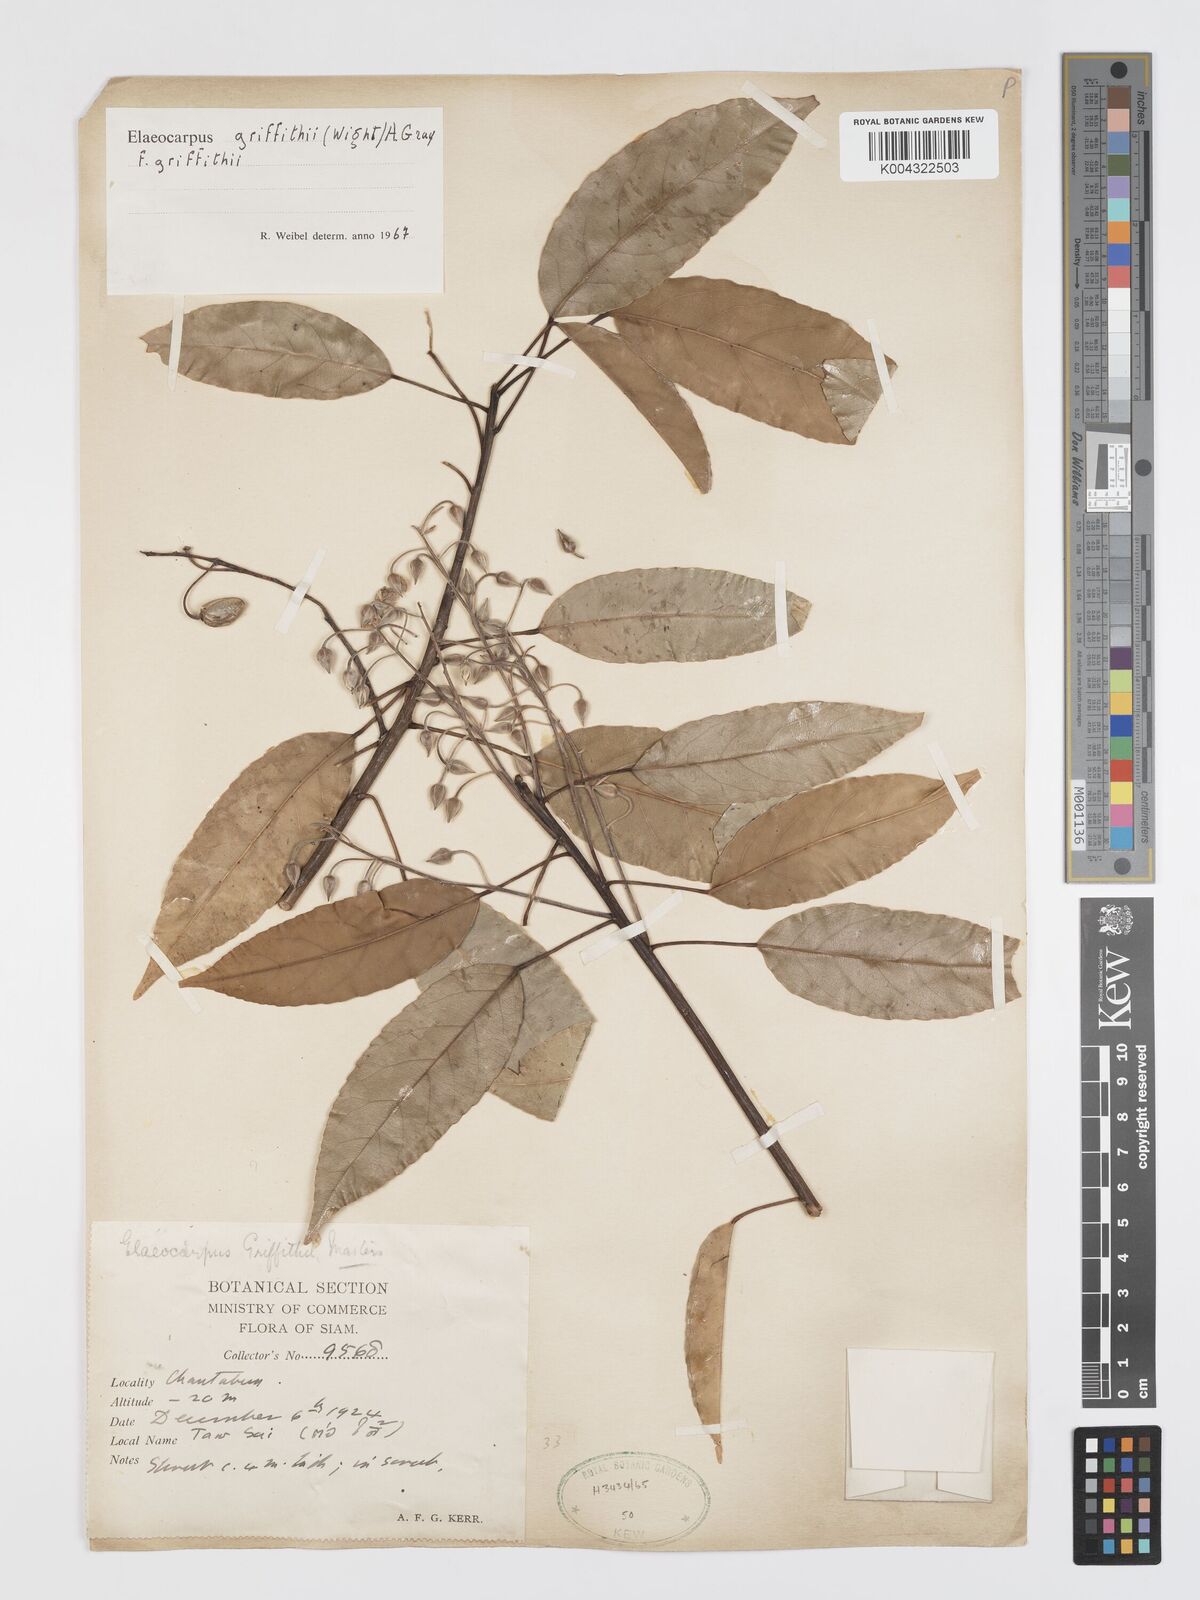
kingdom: Plantae
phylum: Tracheophyta
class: Magnoliopsida
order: Oxalidales
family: Elaeocarpaceae
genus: Elaeocarpus
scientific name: Elaeocarpus griffithii
